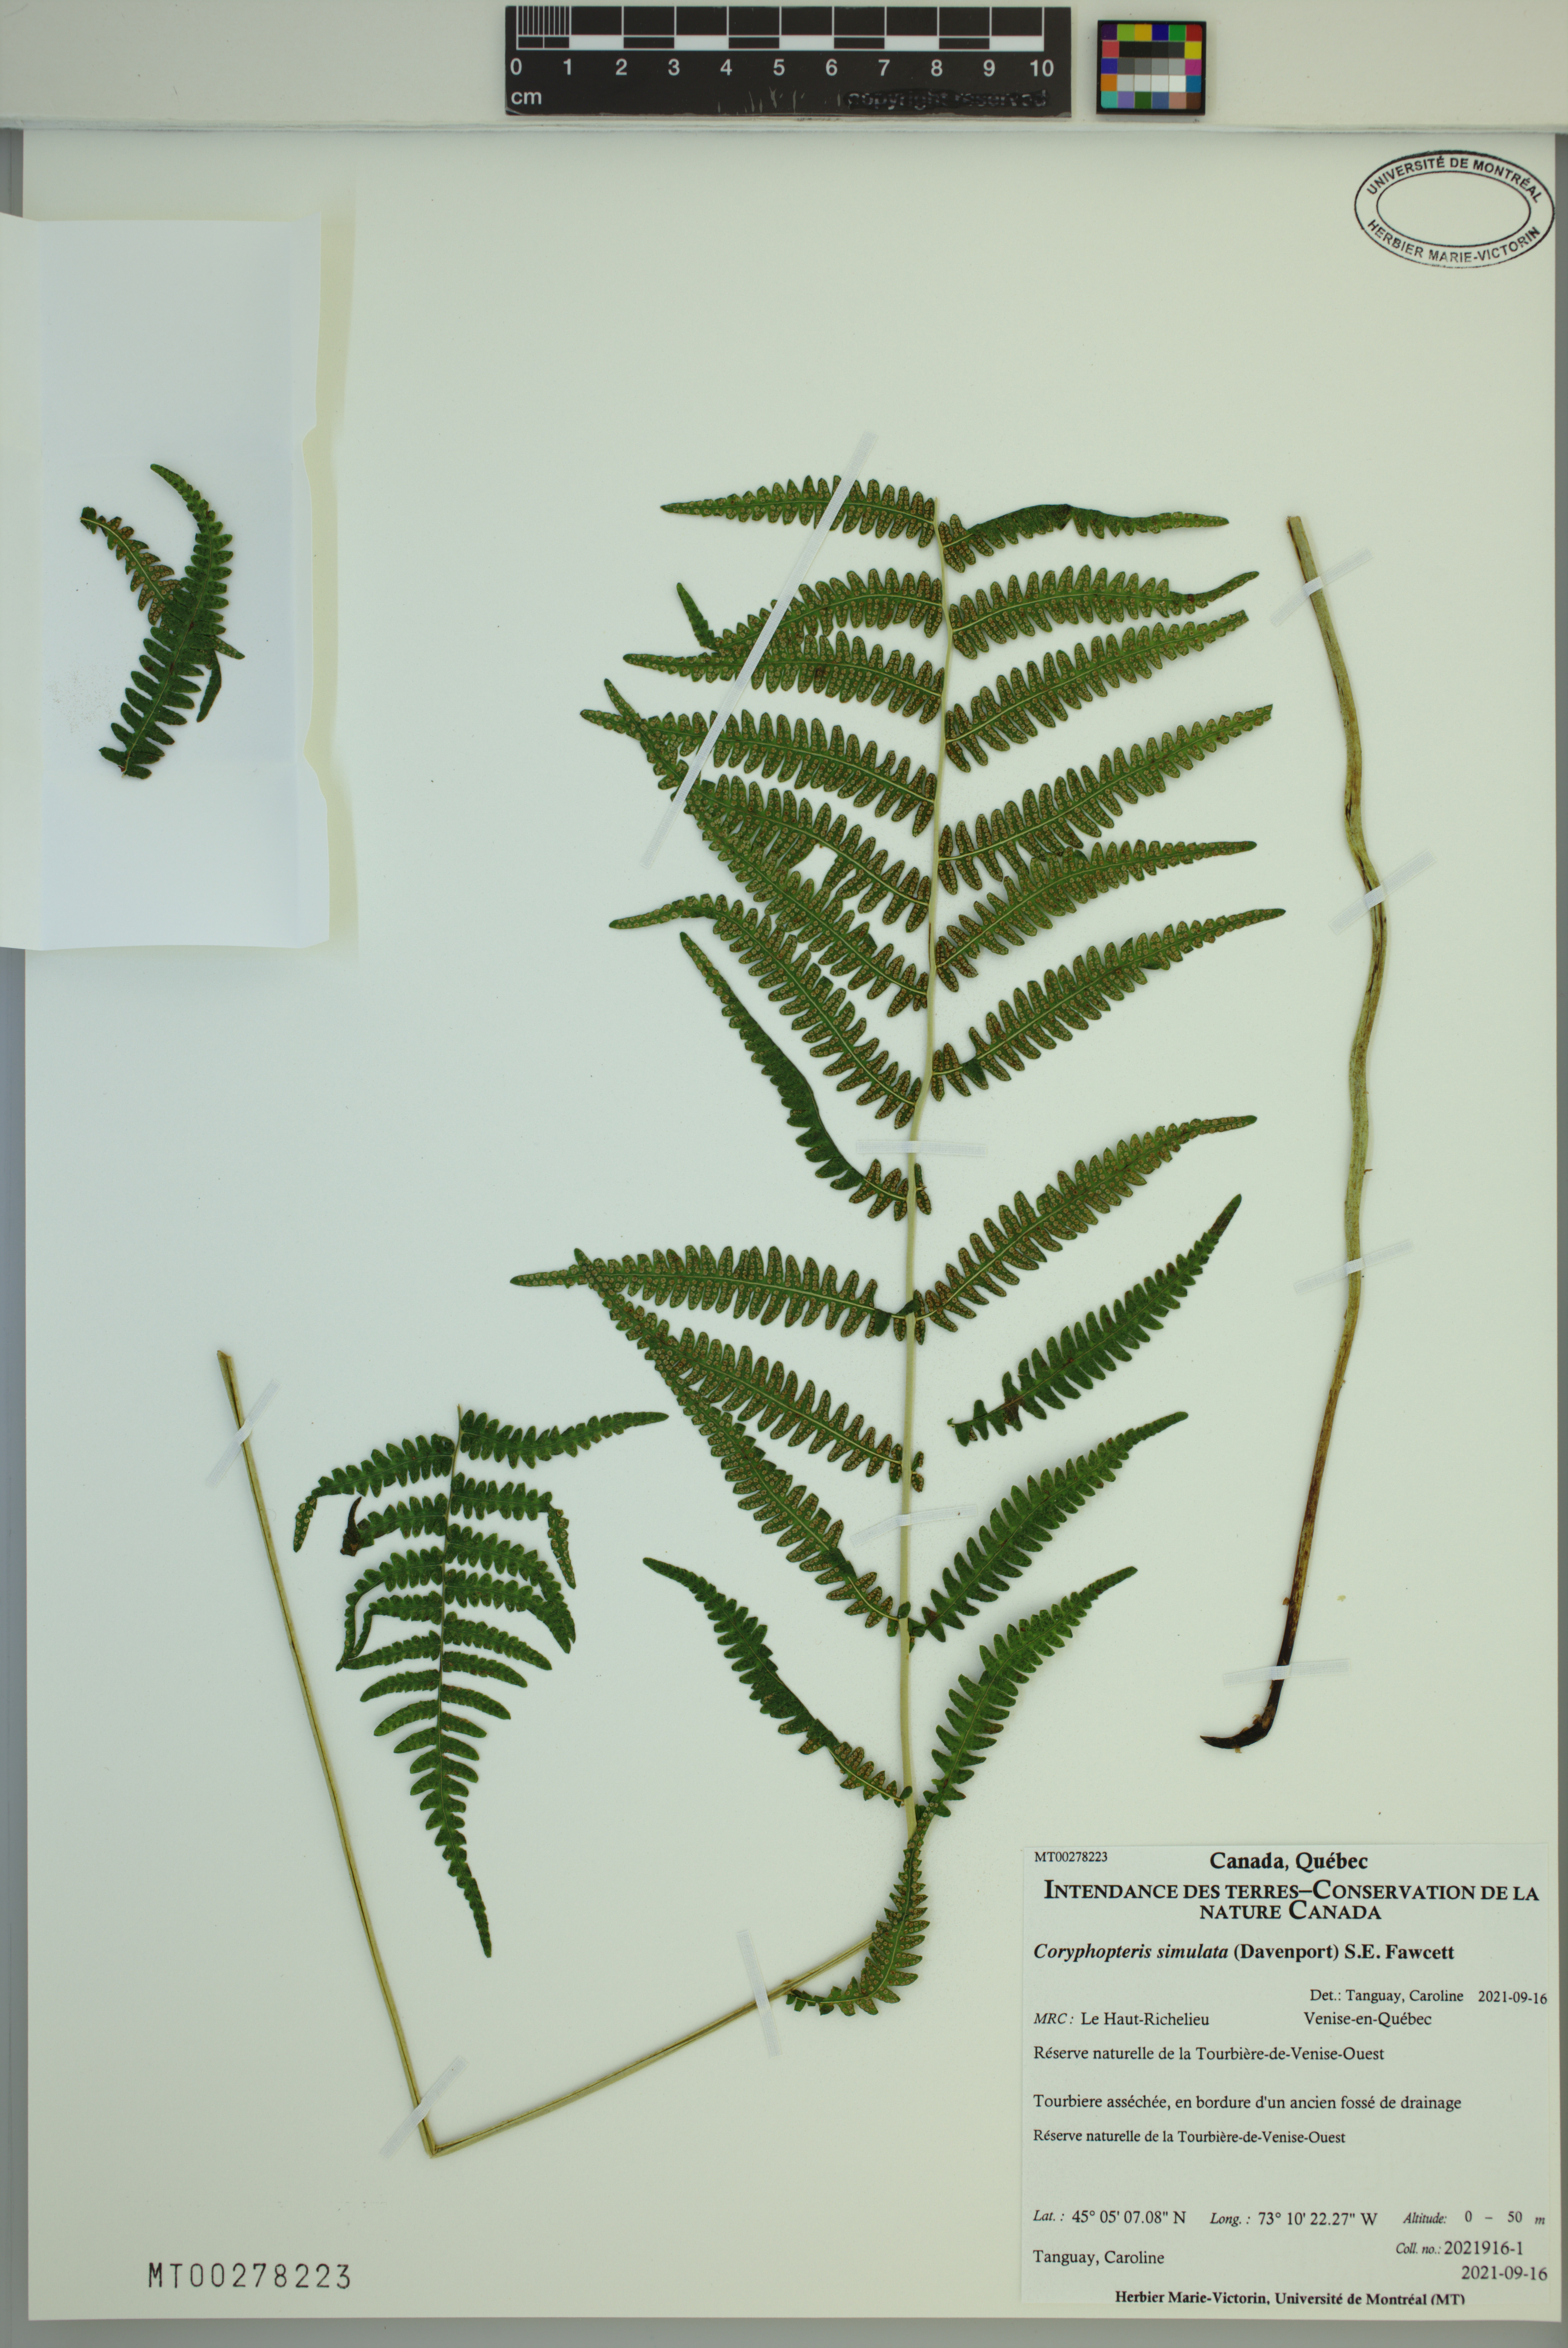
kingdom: Plantae
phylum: Tracheophyta
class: Polypodiopsida
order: Polypodiales
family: Thelypteridaceae
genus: Coryphopteris
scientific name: Coryphopteris simulata
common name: Bog fern
